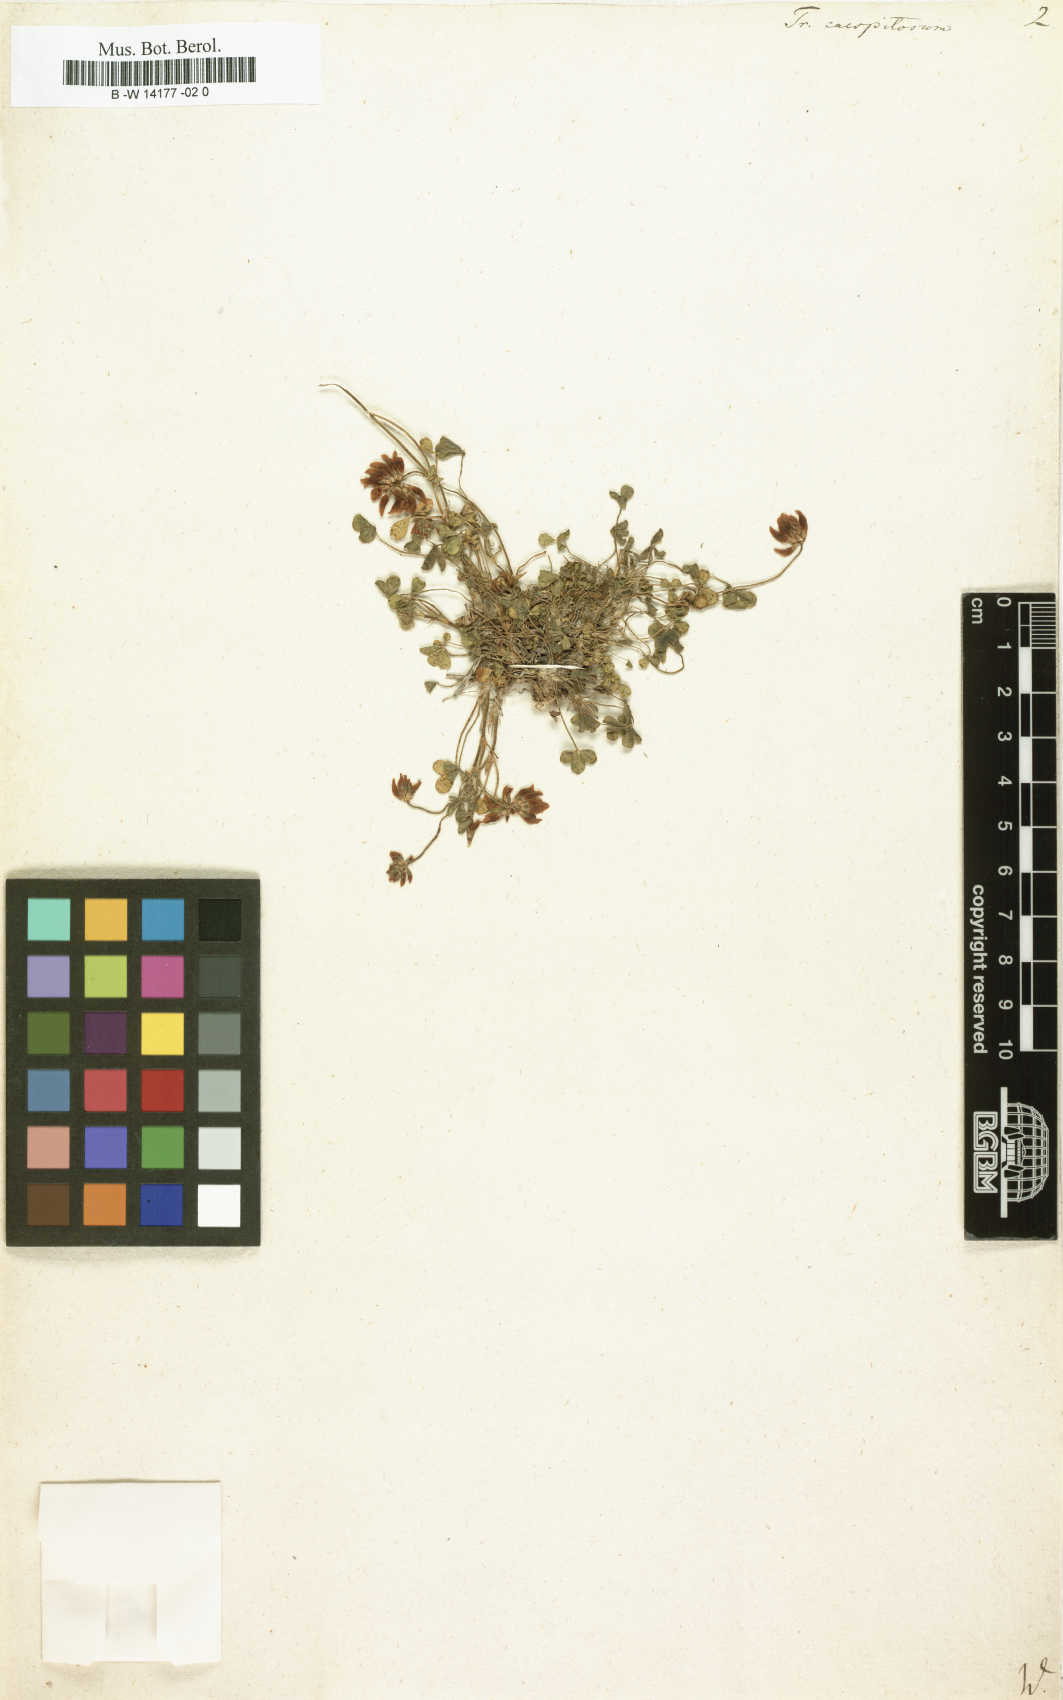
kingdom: Plantae
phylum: Tracheophyta
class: Magnoliopsida
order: Fabales
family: Fabaceae
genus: Trifolium
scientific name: Trifolium
